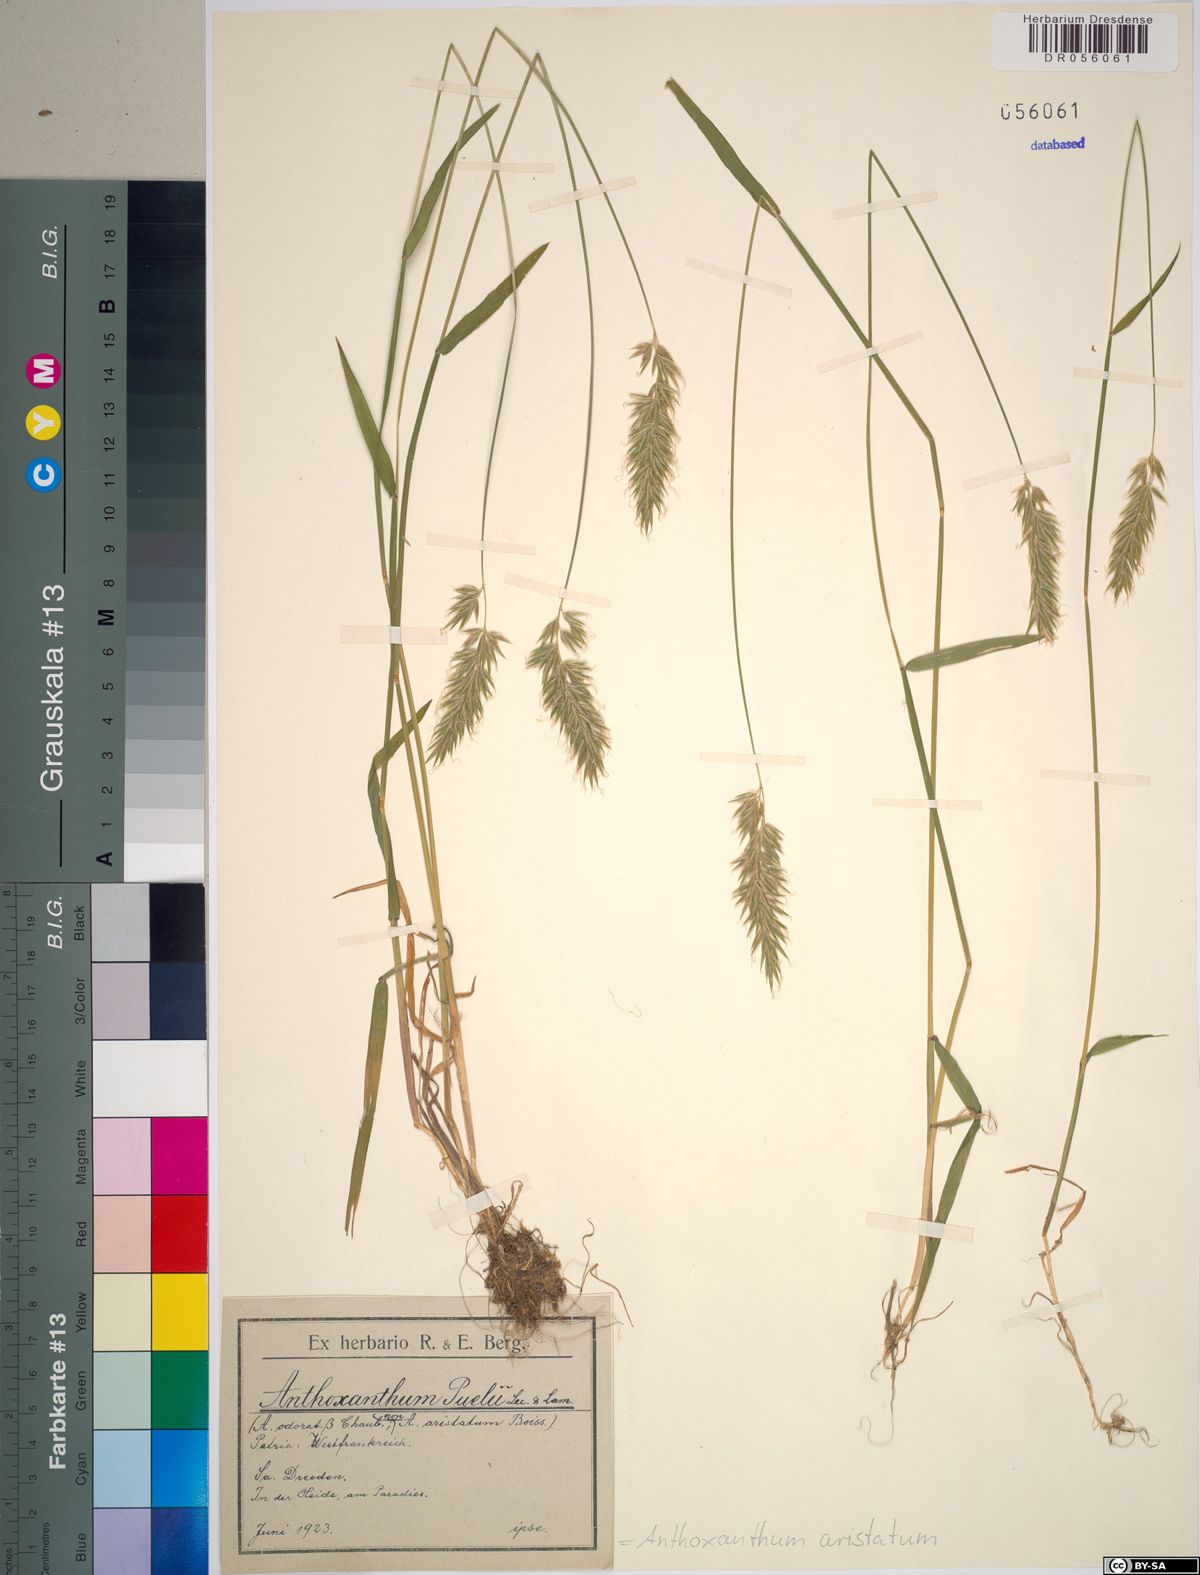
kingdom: Plantae
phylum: Tracheophyta
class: Liliopsida
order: Poales
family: Poaceae
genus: Anthoxanthum
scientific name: Anthoxanthum aristatum
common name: Annual vernal-grass
